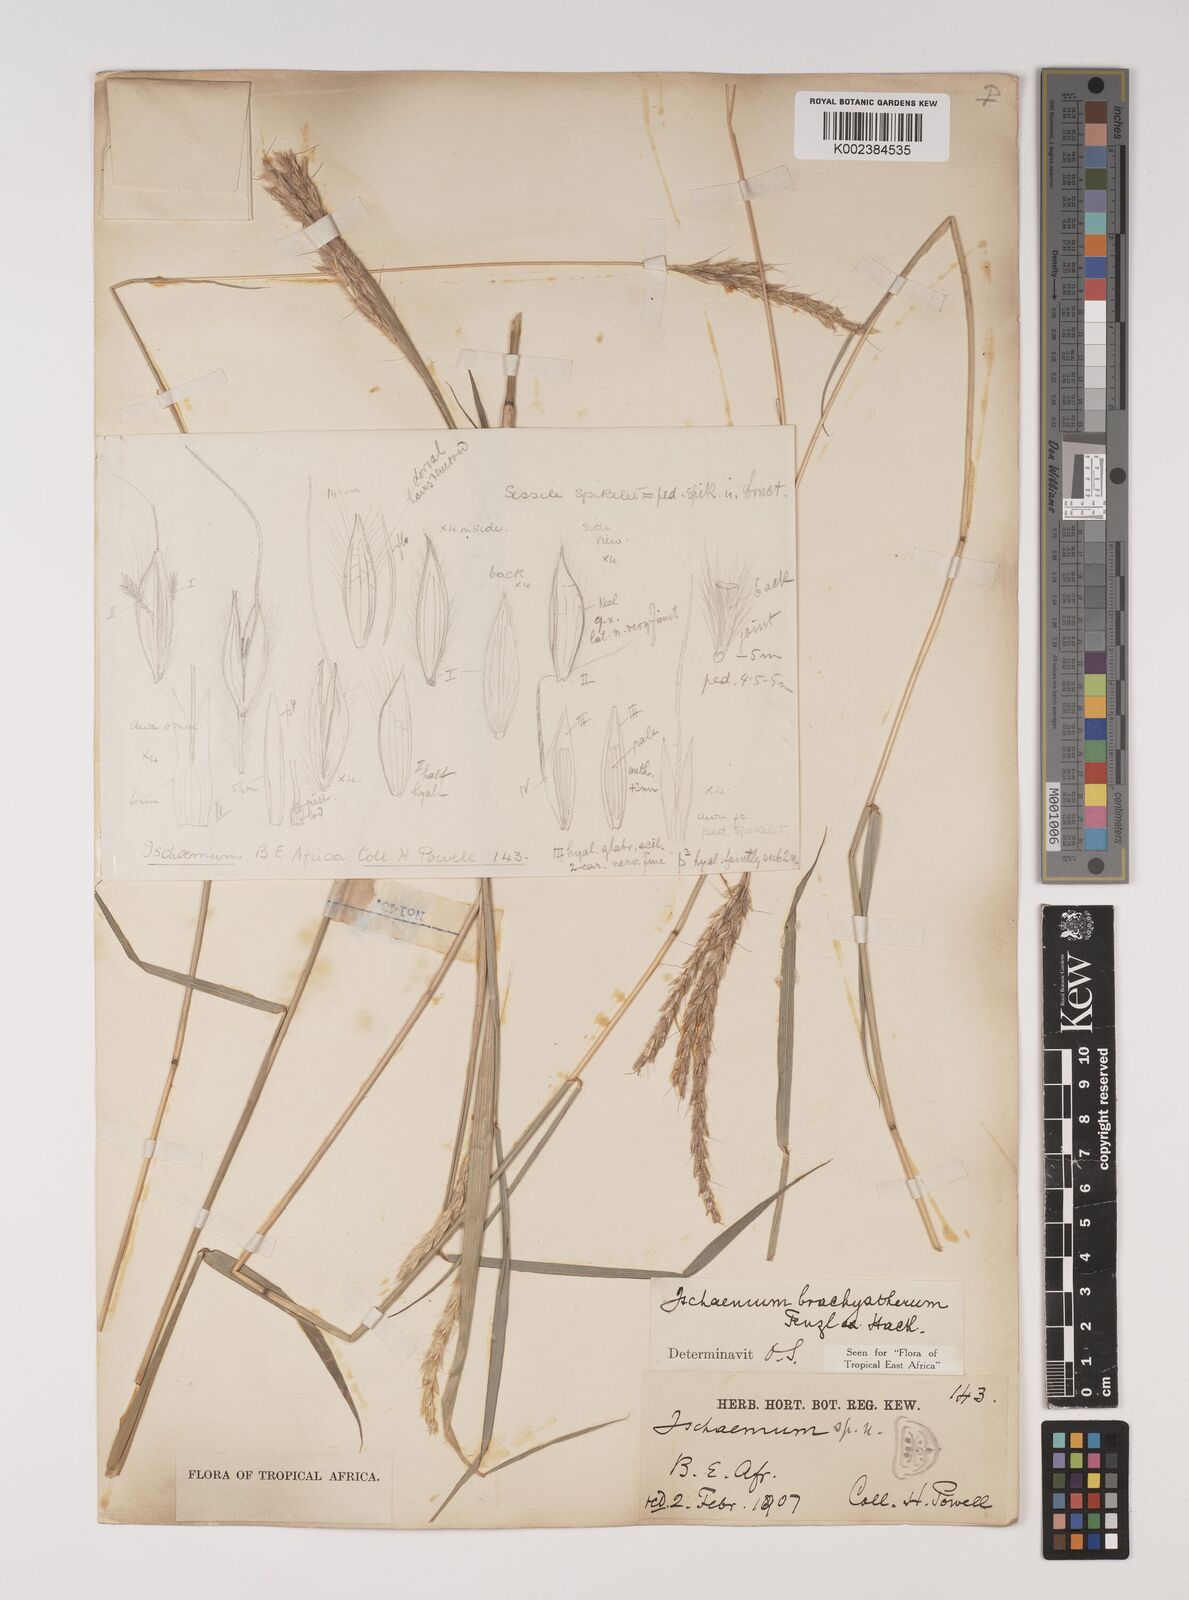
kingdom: Plantae
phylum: Tracheophyta
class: Liliopsida
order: Poales
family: Poaceae
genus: Ischaemum
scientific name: Ischaemum afrum
